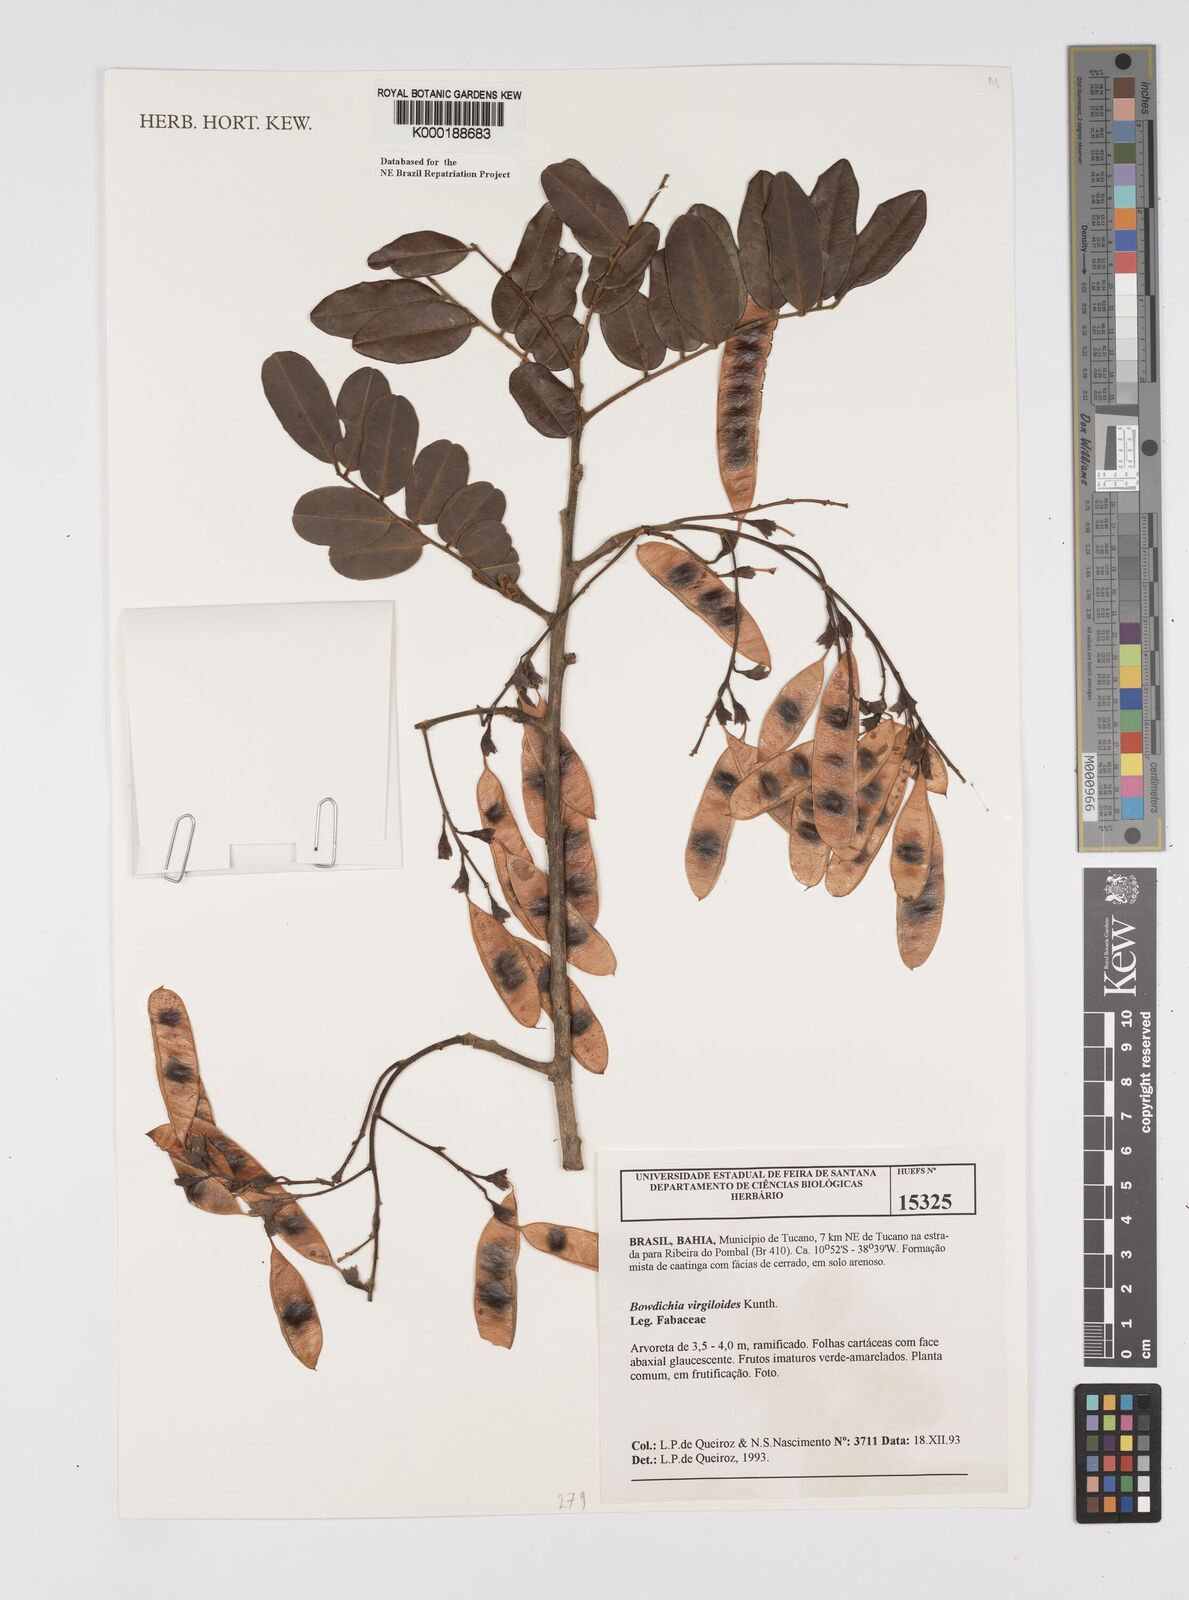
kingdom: Plantae
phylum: Tracheophyta
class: Magnoliopsida
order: Fabales
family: Fabaceae
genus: Bowdichia
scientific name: Bowdichia virgilioides
